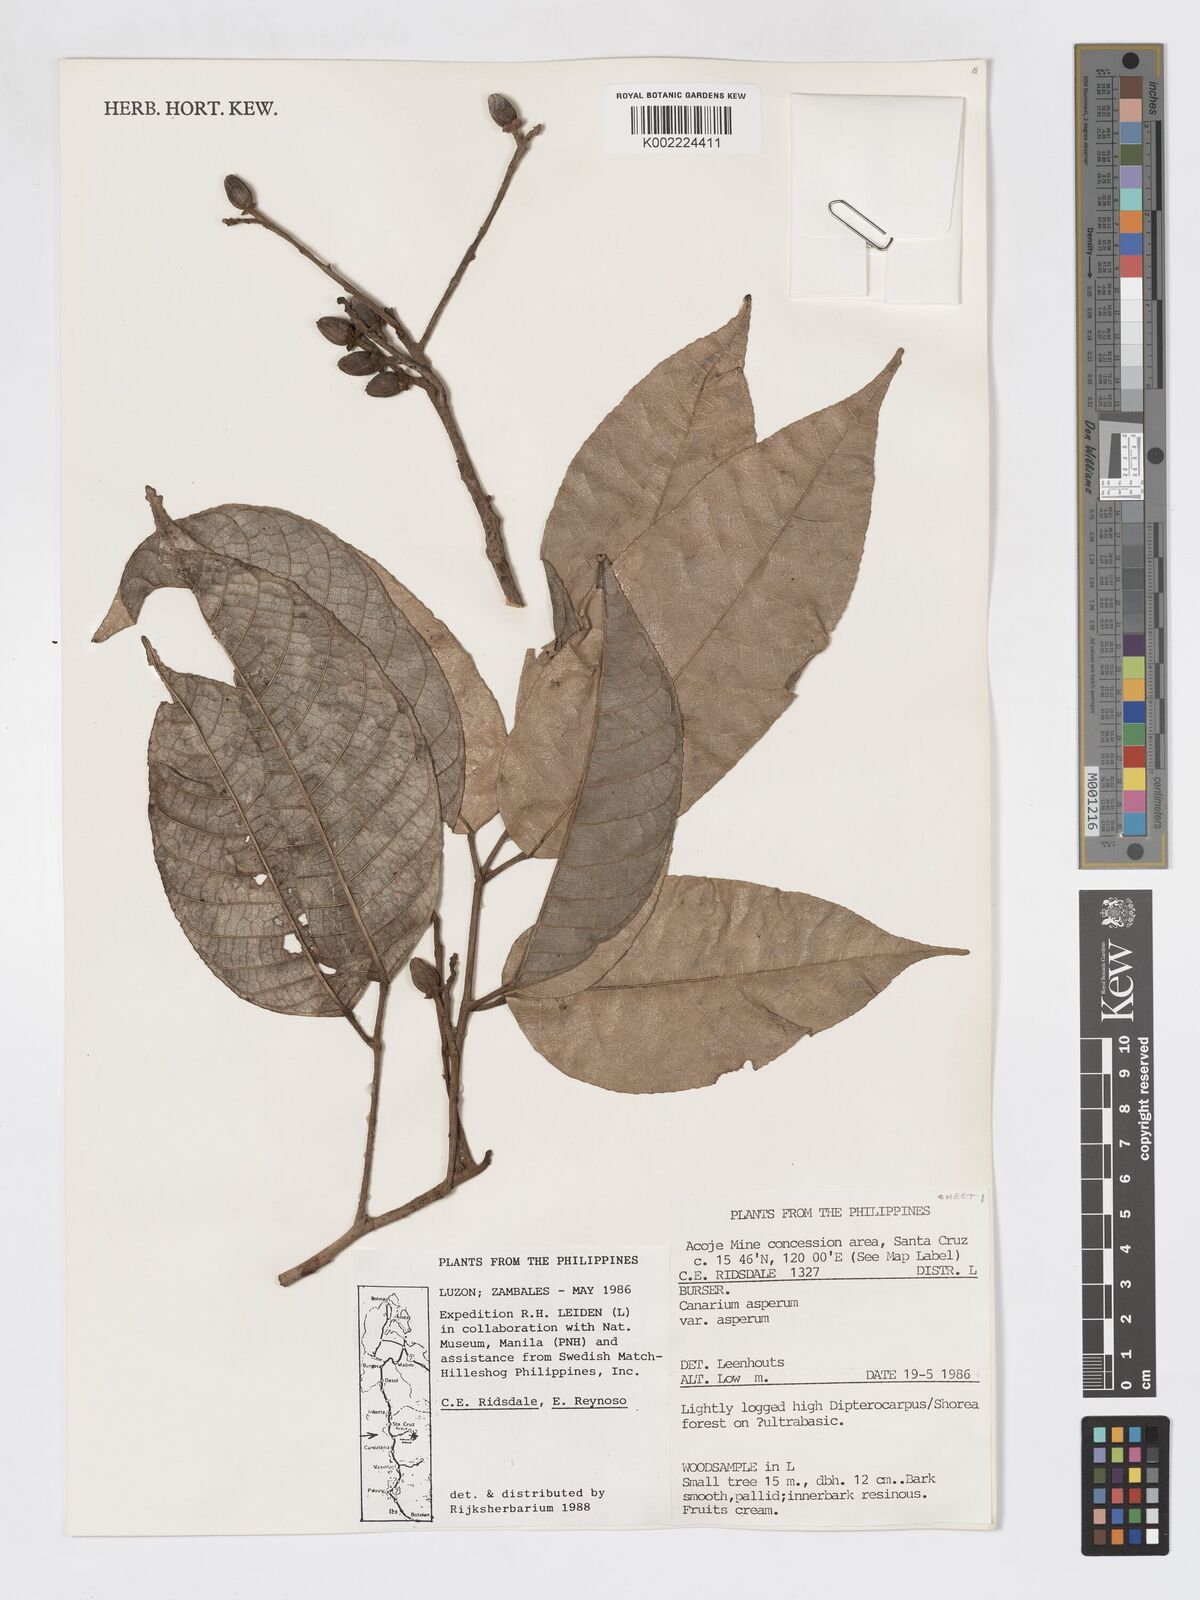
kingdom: Plantae
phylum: Tracheophyta
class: Magnoliopsida
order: Sapindales
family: Burseraceae
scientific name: Burseraceae
